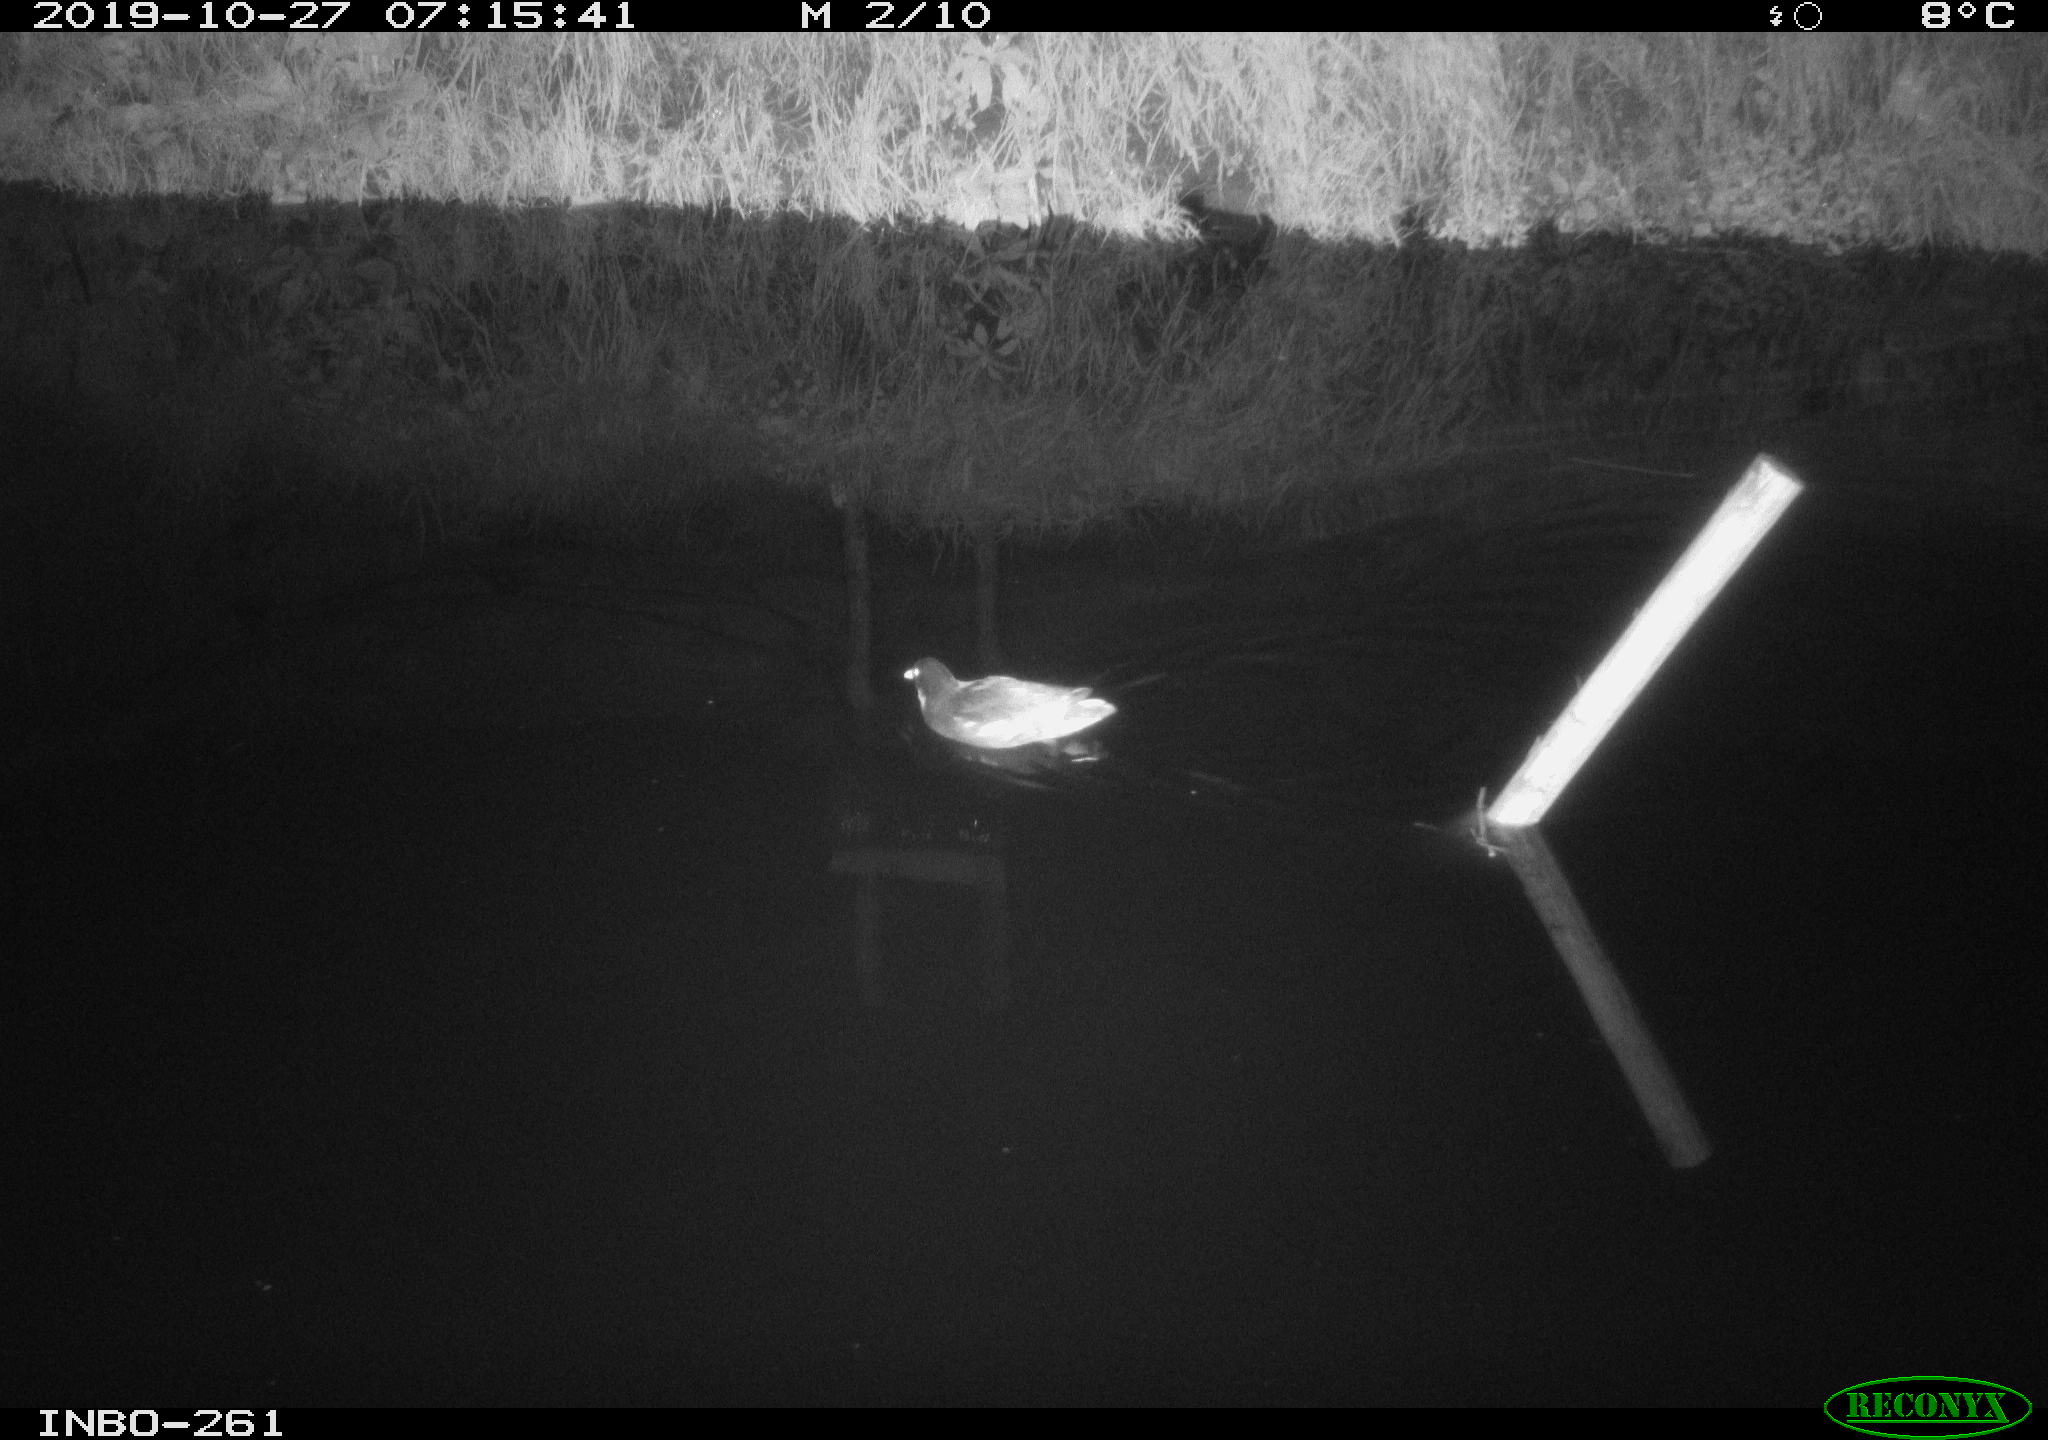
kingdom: Animalia
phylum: Chordata
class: Aves
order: Anseriformes
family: Anatidae
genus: Anas
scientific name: Anas platyrhynchos
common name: Mallard
